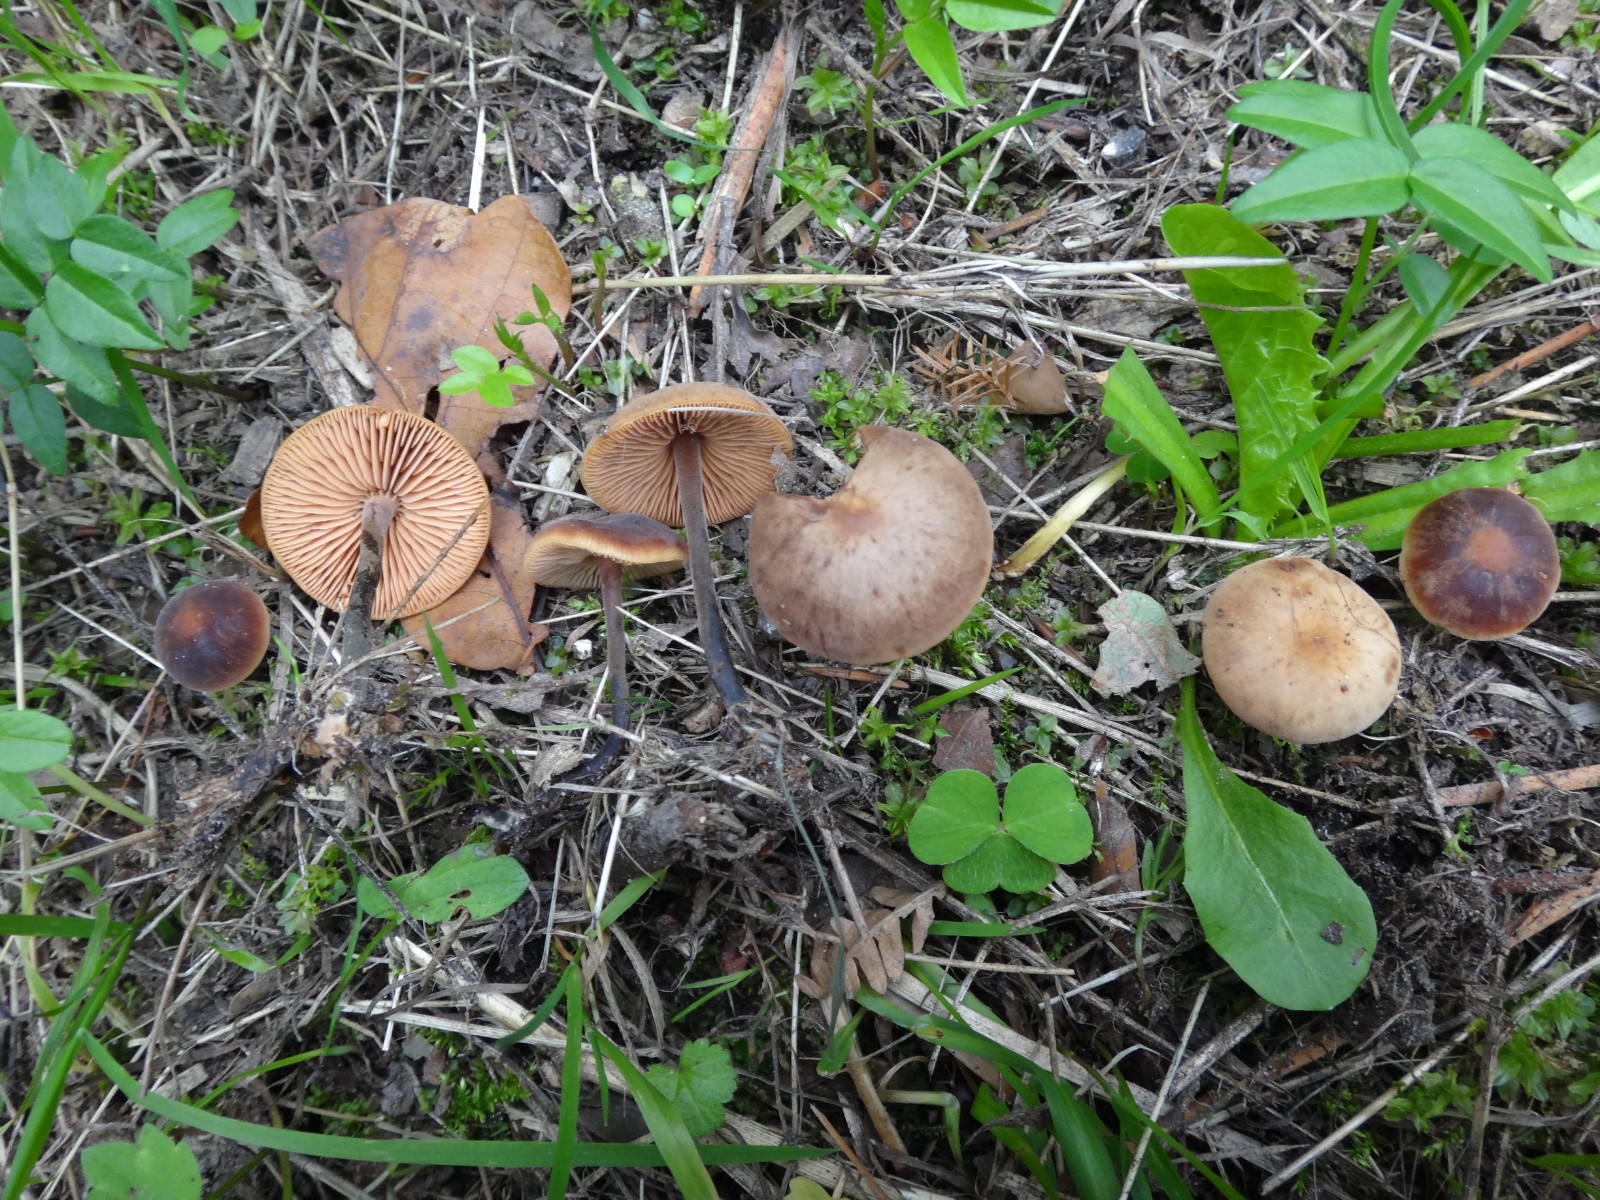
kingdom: Fungi
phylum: Basidiomycota
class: Agaricomycetes
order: Agaricales
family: Macrocystidiaceae
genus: Macrocystidia
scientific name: Macrocystidia cucumis
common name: agurkehat
